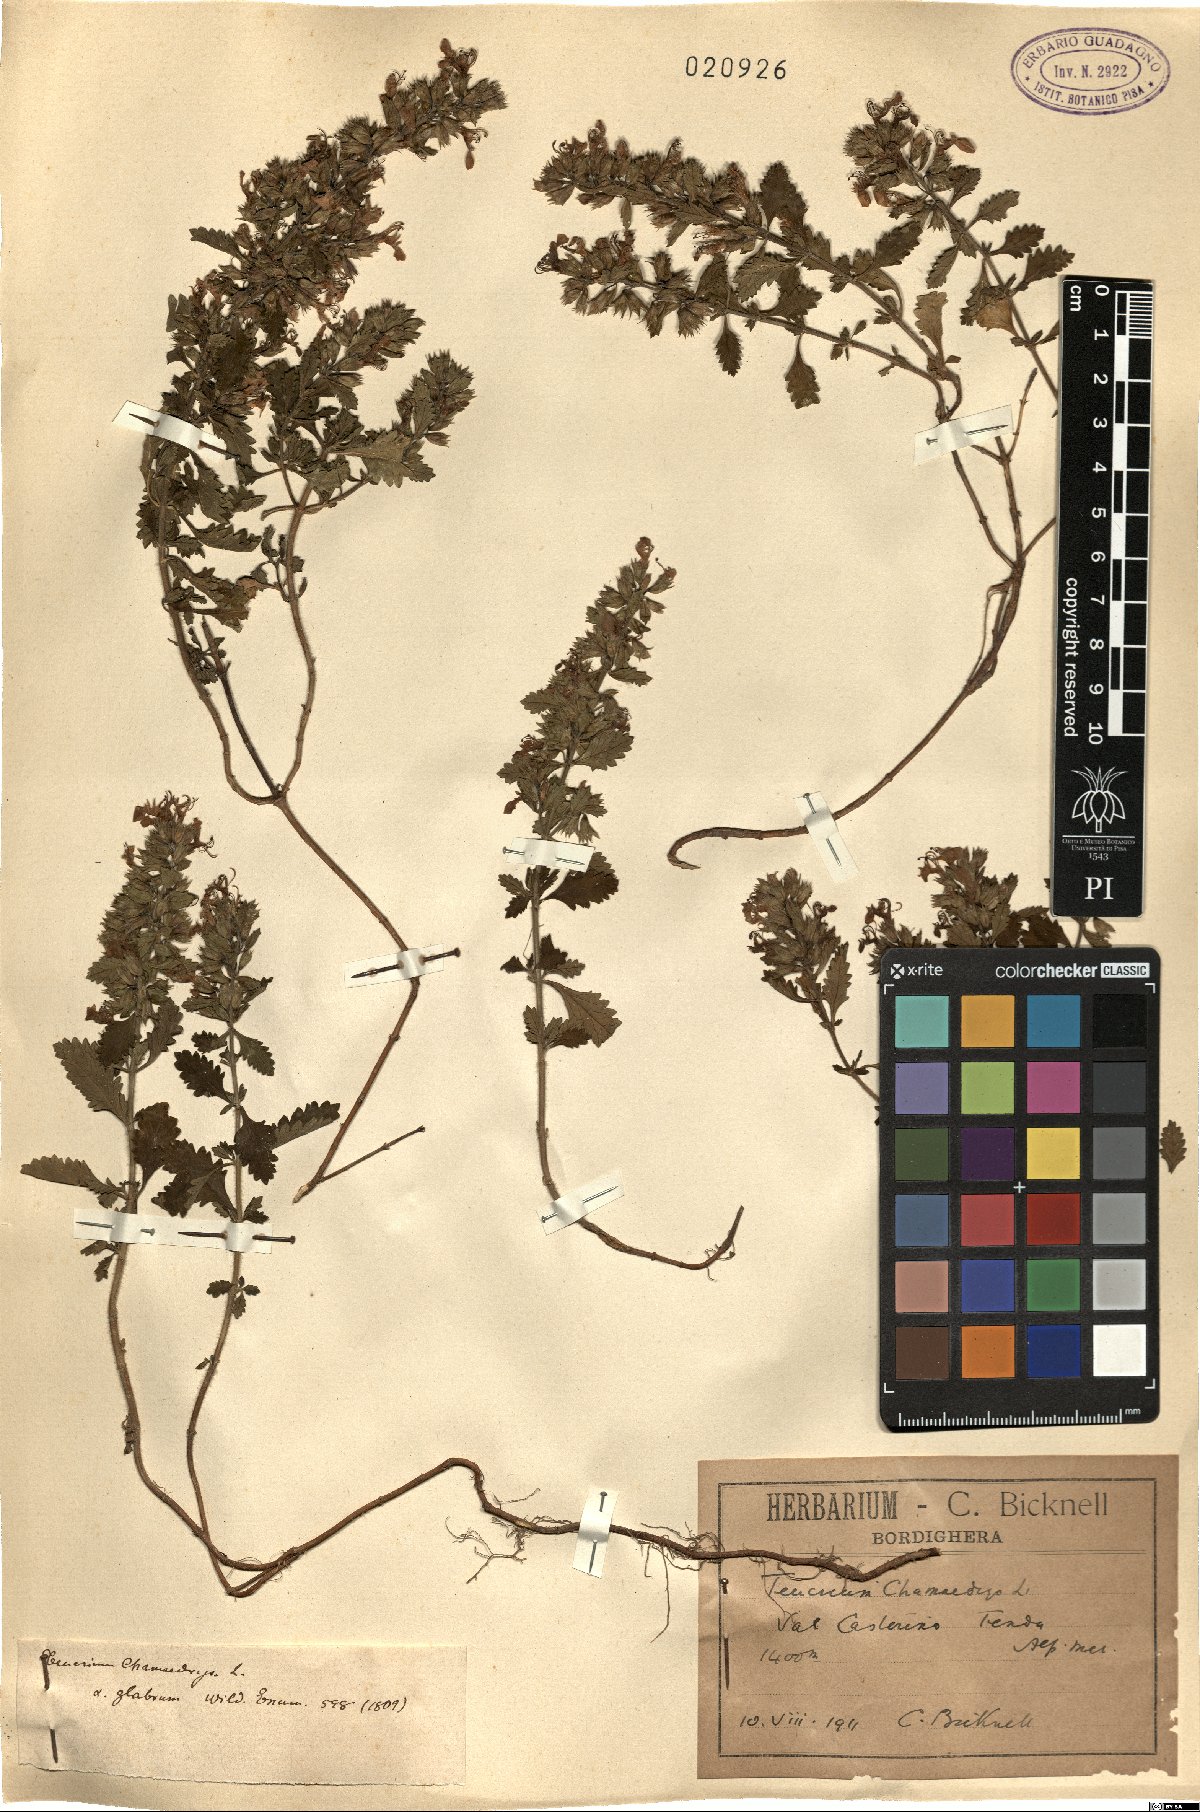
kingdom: Plantae
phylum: Tracheophyta
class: Magnoliopsida
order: Lamiales
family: Lamiaceae
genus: Teucrium
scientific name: Teucrium chamaedrys
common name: Wall germander
